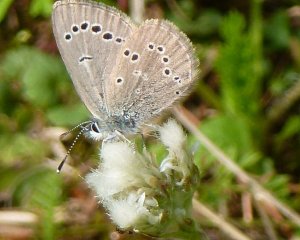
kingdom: Animalia
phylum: Arthropoda
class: Insecta
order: Lepidoptera
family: Lycaenidae
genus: Glaucopsyche
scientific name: Glaucopsyche lygdamus
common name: Silvery Blue
